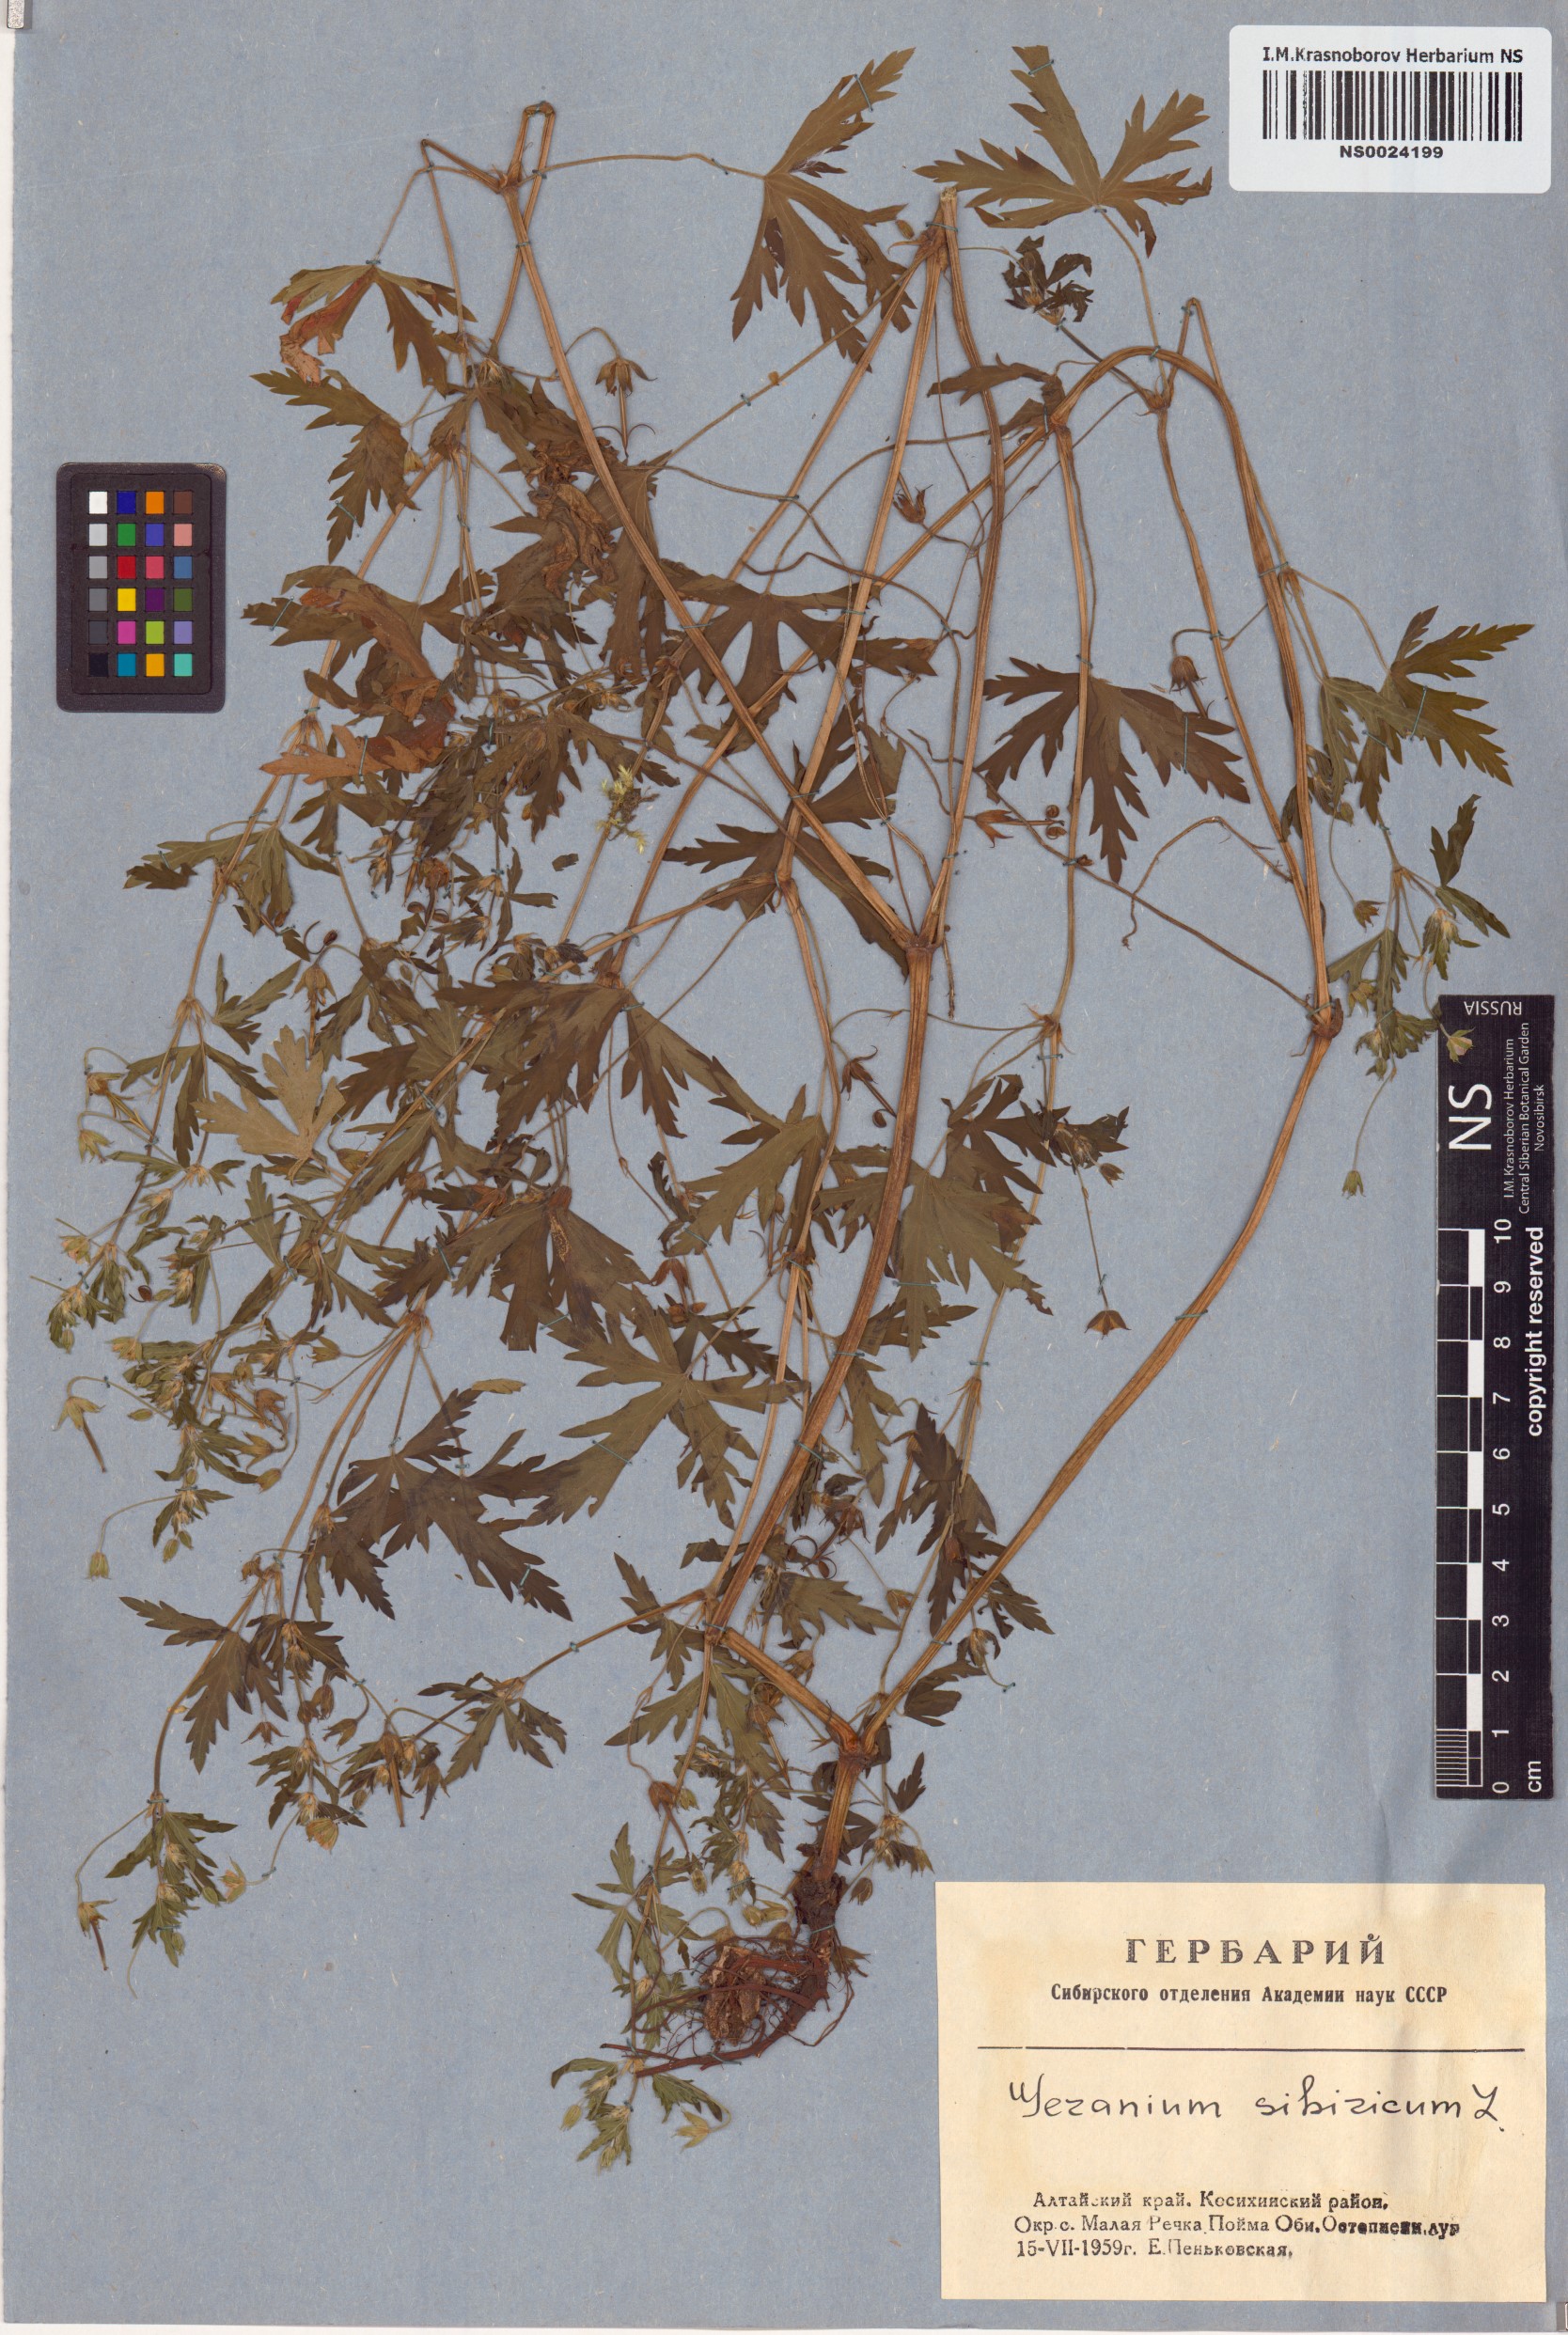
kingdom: Plantae
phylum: Tracheophyta
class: Magnoliopsida
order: Geraniales
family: Geraniaceae
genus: Geranium
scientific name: Geranium sibiricum
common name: Siberian crane's-bill
